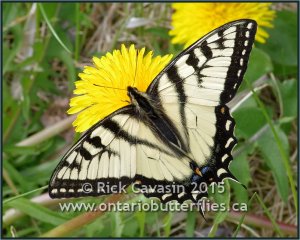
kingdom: Animalia
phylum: Arthropoda
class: Insecta
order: Lepidoptera
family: Papilionidae
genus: Pterourus
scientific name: Pterourus canadensis
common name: Canadian Tiger Swallowtail
